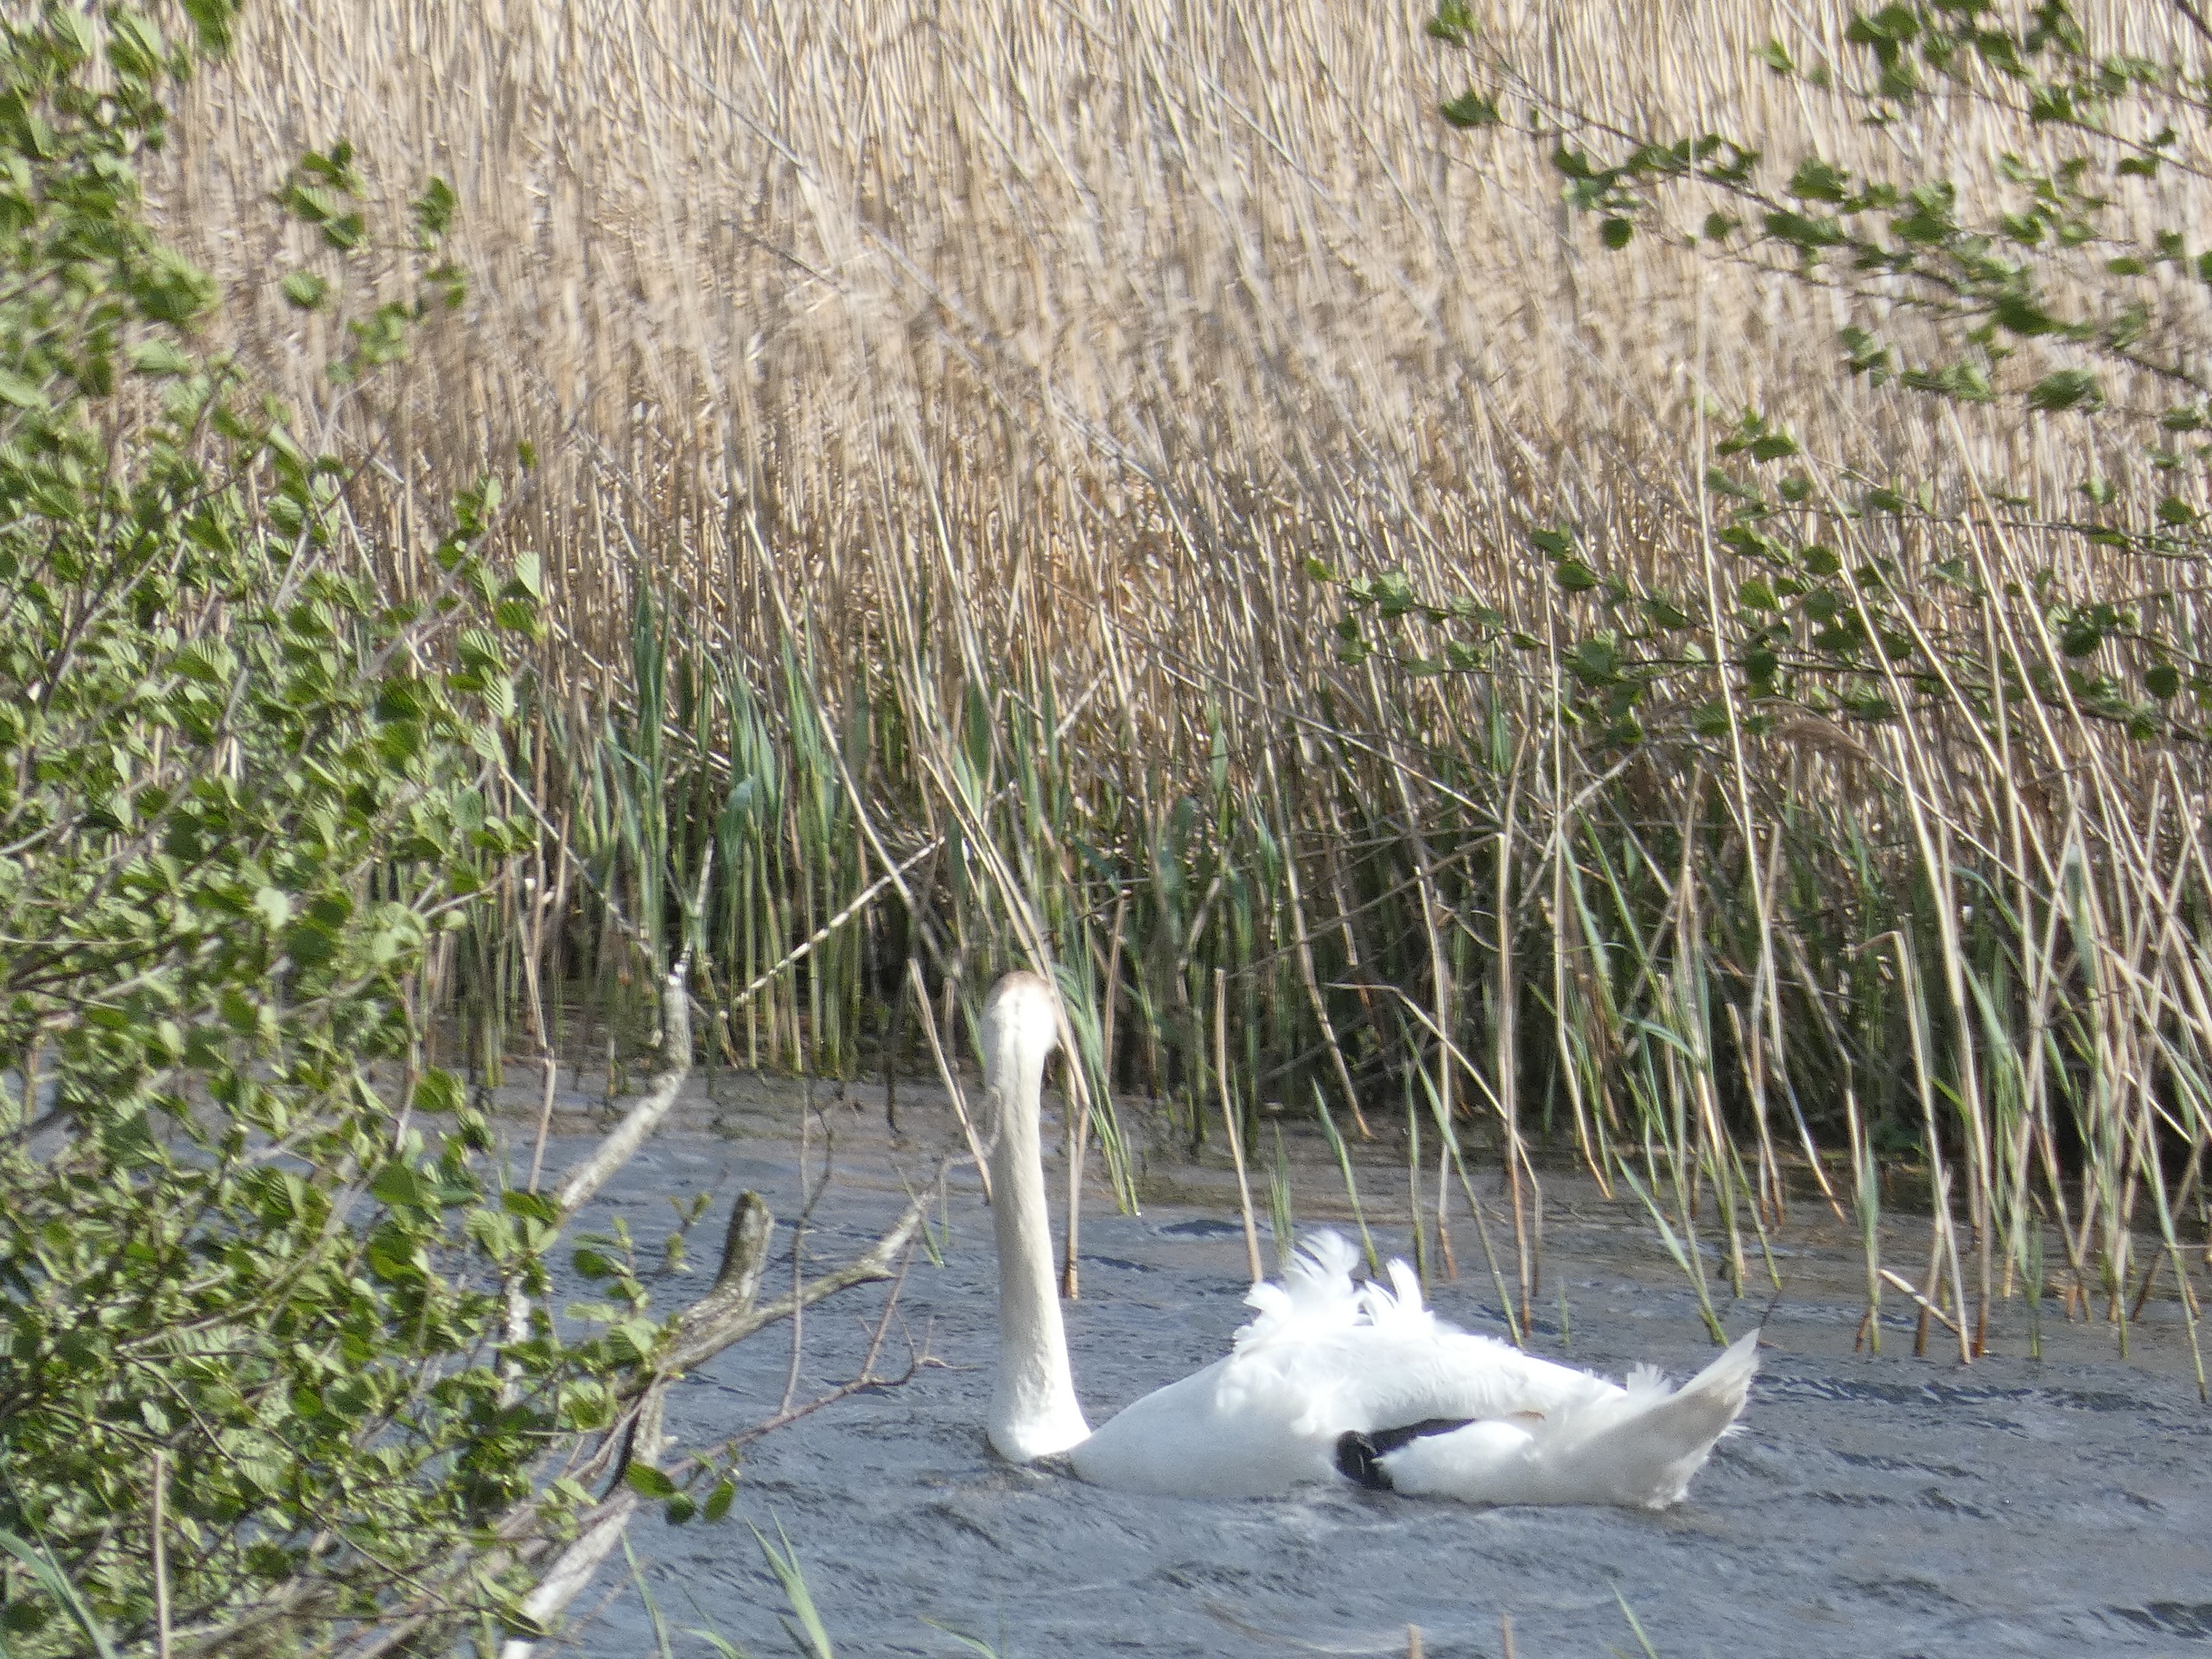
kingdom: Animalia
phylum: Chordata
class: Aves
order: Anseriformes
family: Anatidae
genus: Cygnus
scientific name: Cygnus olor
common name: Knopsvane
